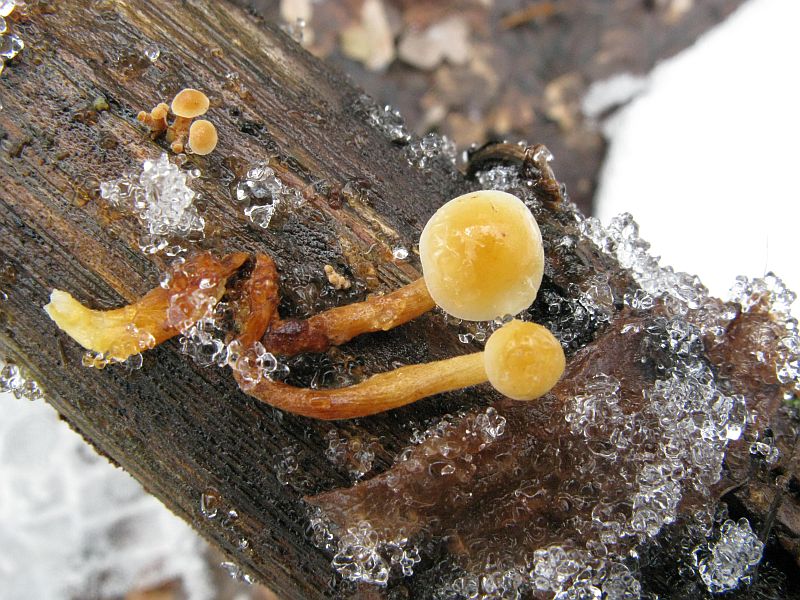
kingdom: Fungi
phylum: Basidiomycota
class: Agaricomycetes
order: Agaricales
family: Physalacriaceae
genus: Flammulina
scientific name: Flammulina velutipes
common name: gul fløjlsfod
